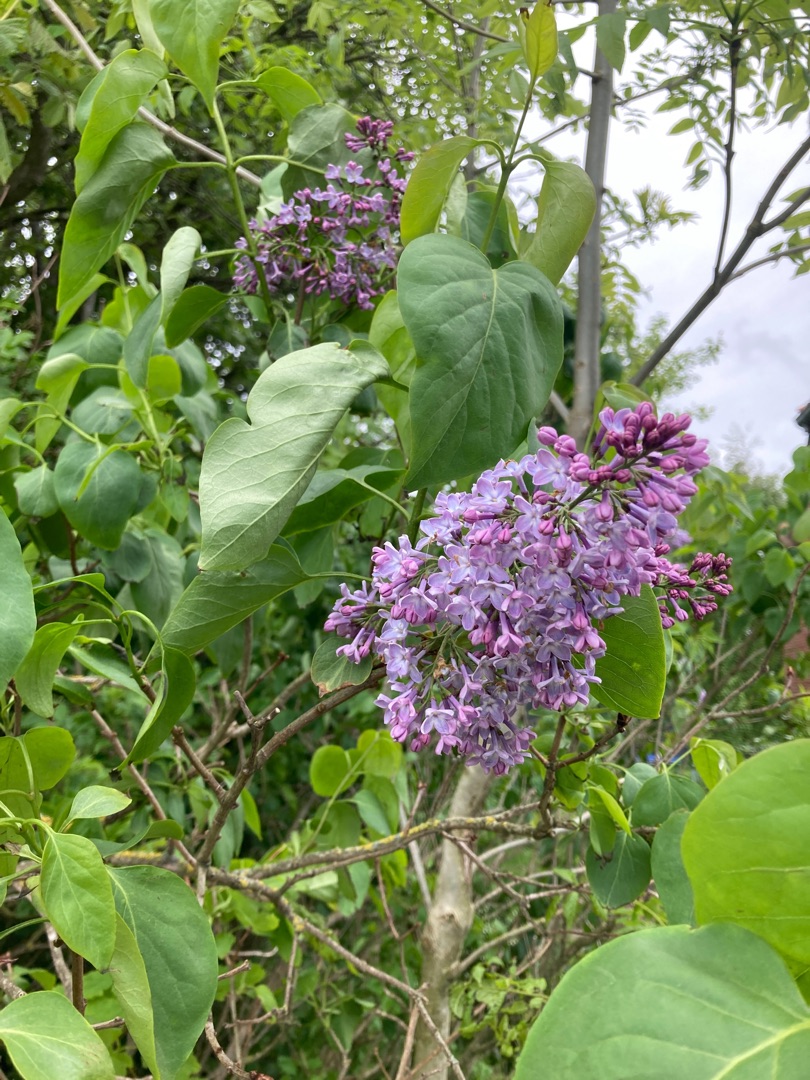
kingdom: Plantae
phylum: Tracheophyta
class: Magnoliopsida
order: Lamiales
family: Oleaceae
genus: Syringa
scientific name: Syringa vulgaris
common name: Syren
